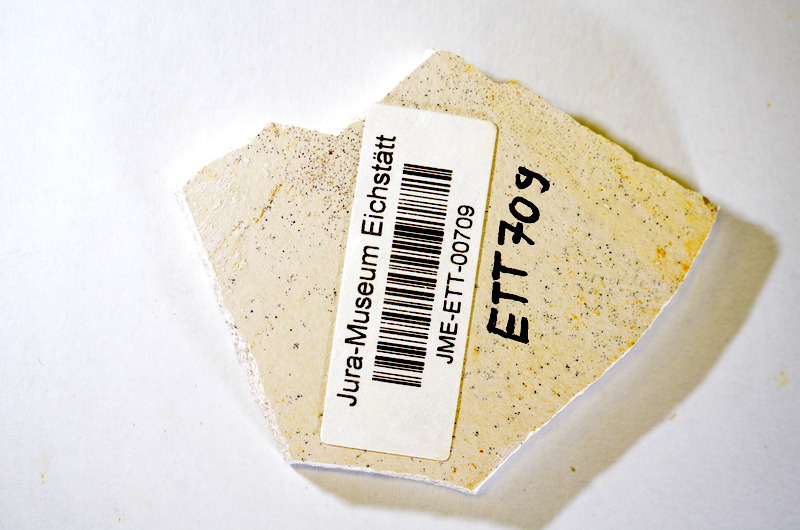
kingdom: Animalia
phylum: Chordata
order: Salmoniformes
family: Orthogonikleithridae
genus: Orthogonikleithrus
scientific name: Orthogonikleithrus hoelli
